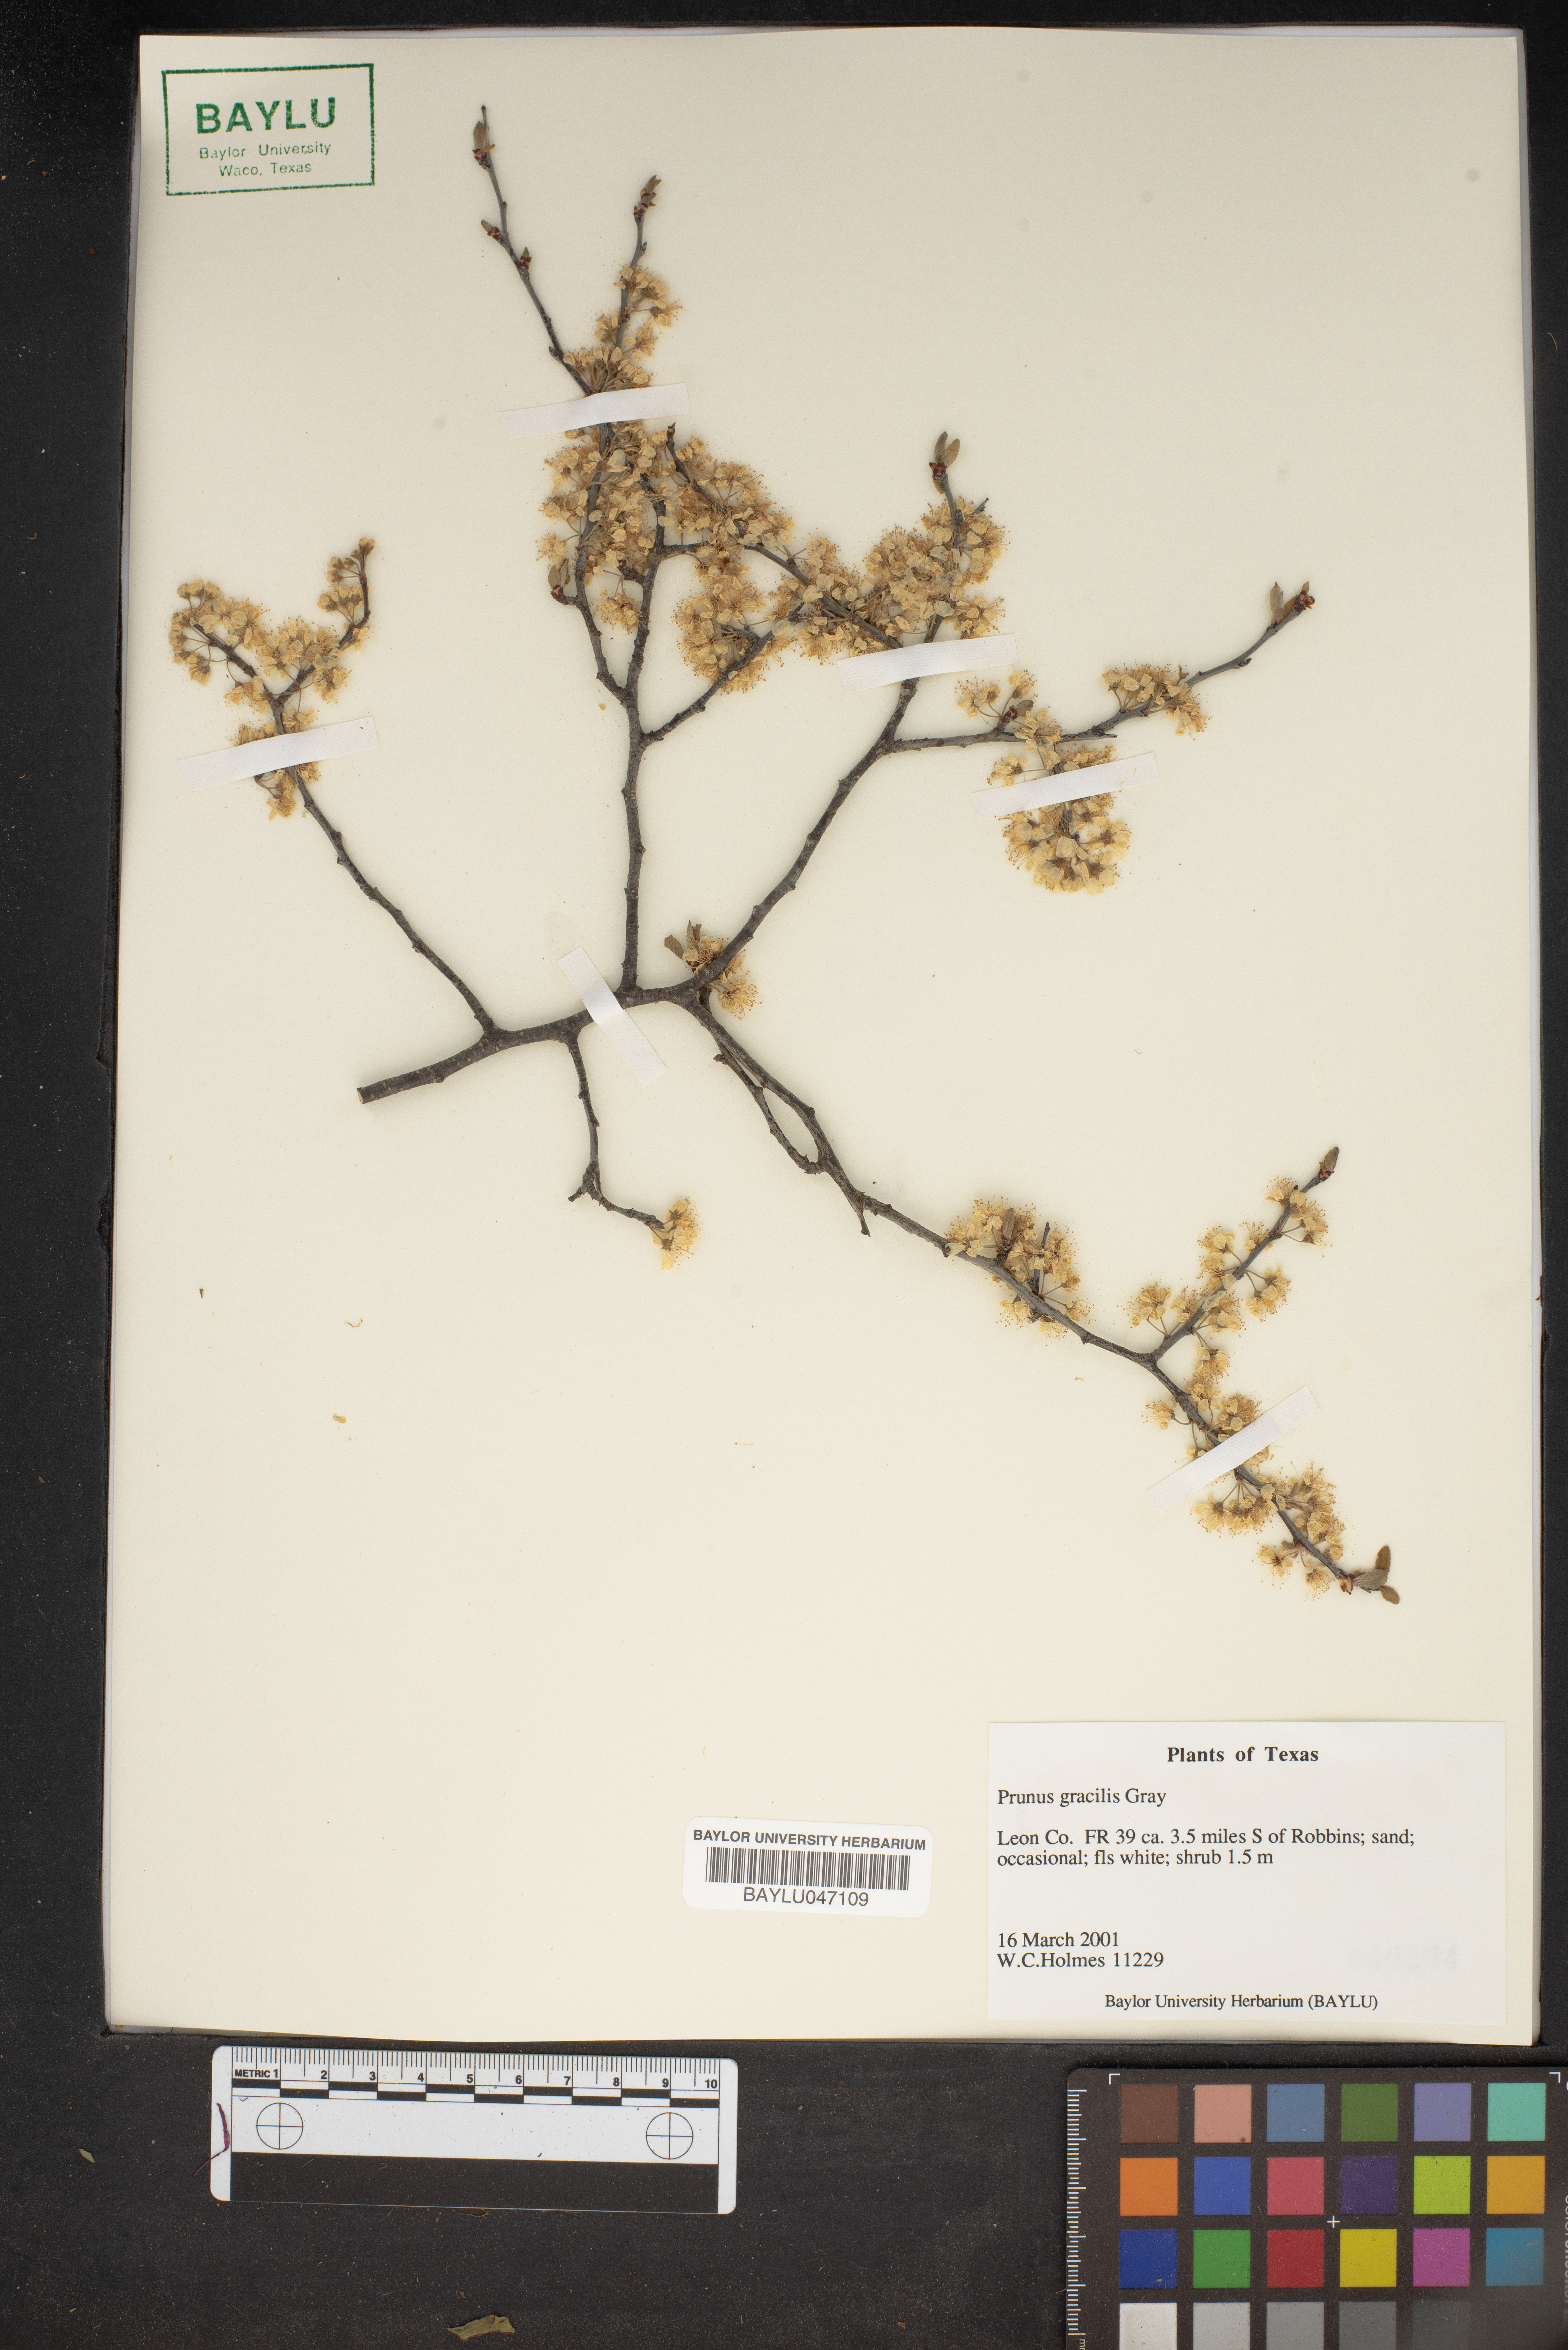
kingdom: Plantae
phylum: Tracheophyta
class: Magnoliopsida
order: Rosales
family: Rosaceae
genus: Prunus
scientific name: Prunus gracilis
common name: Oklahoma plum
